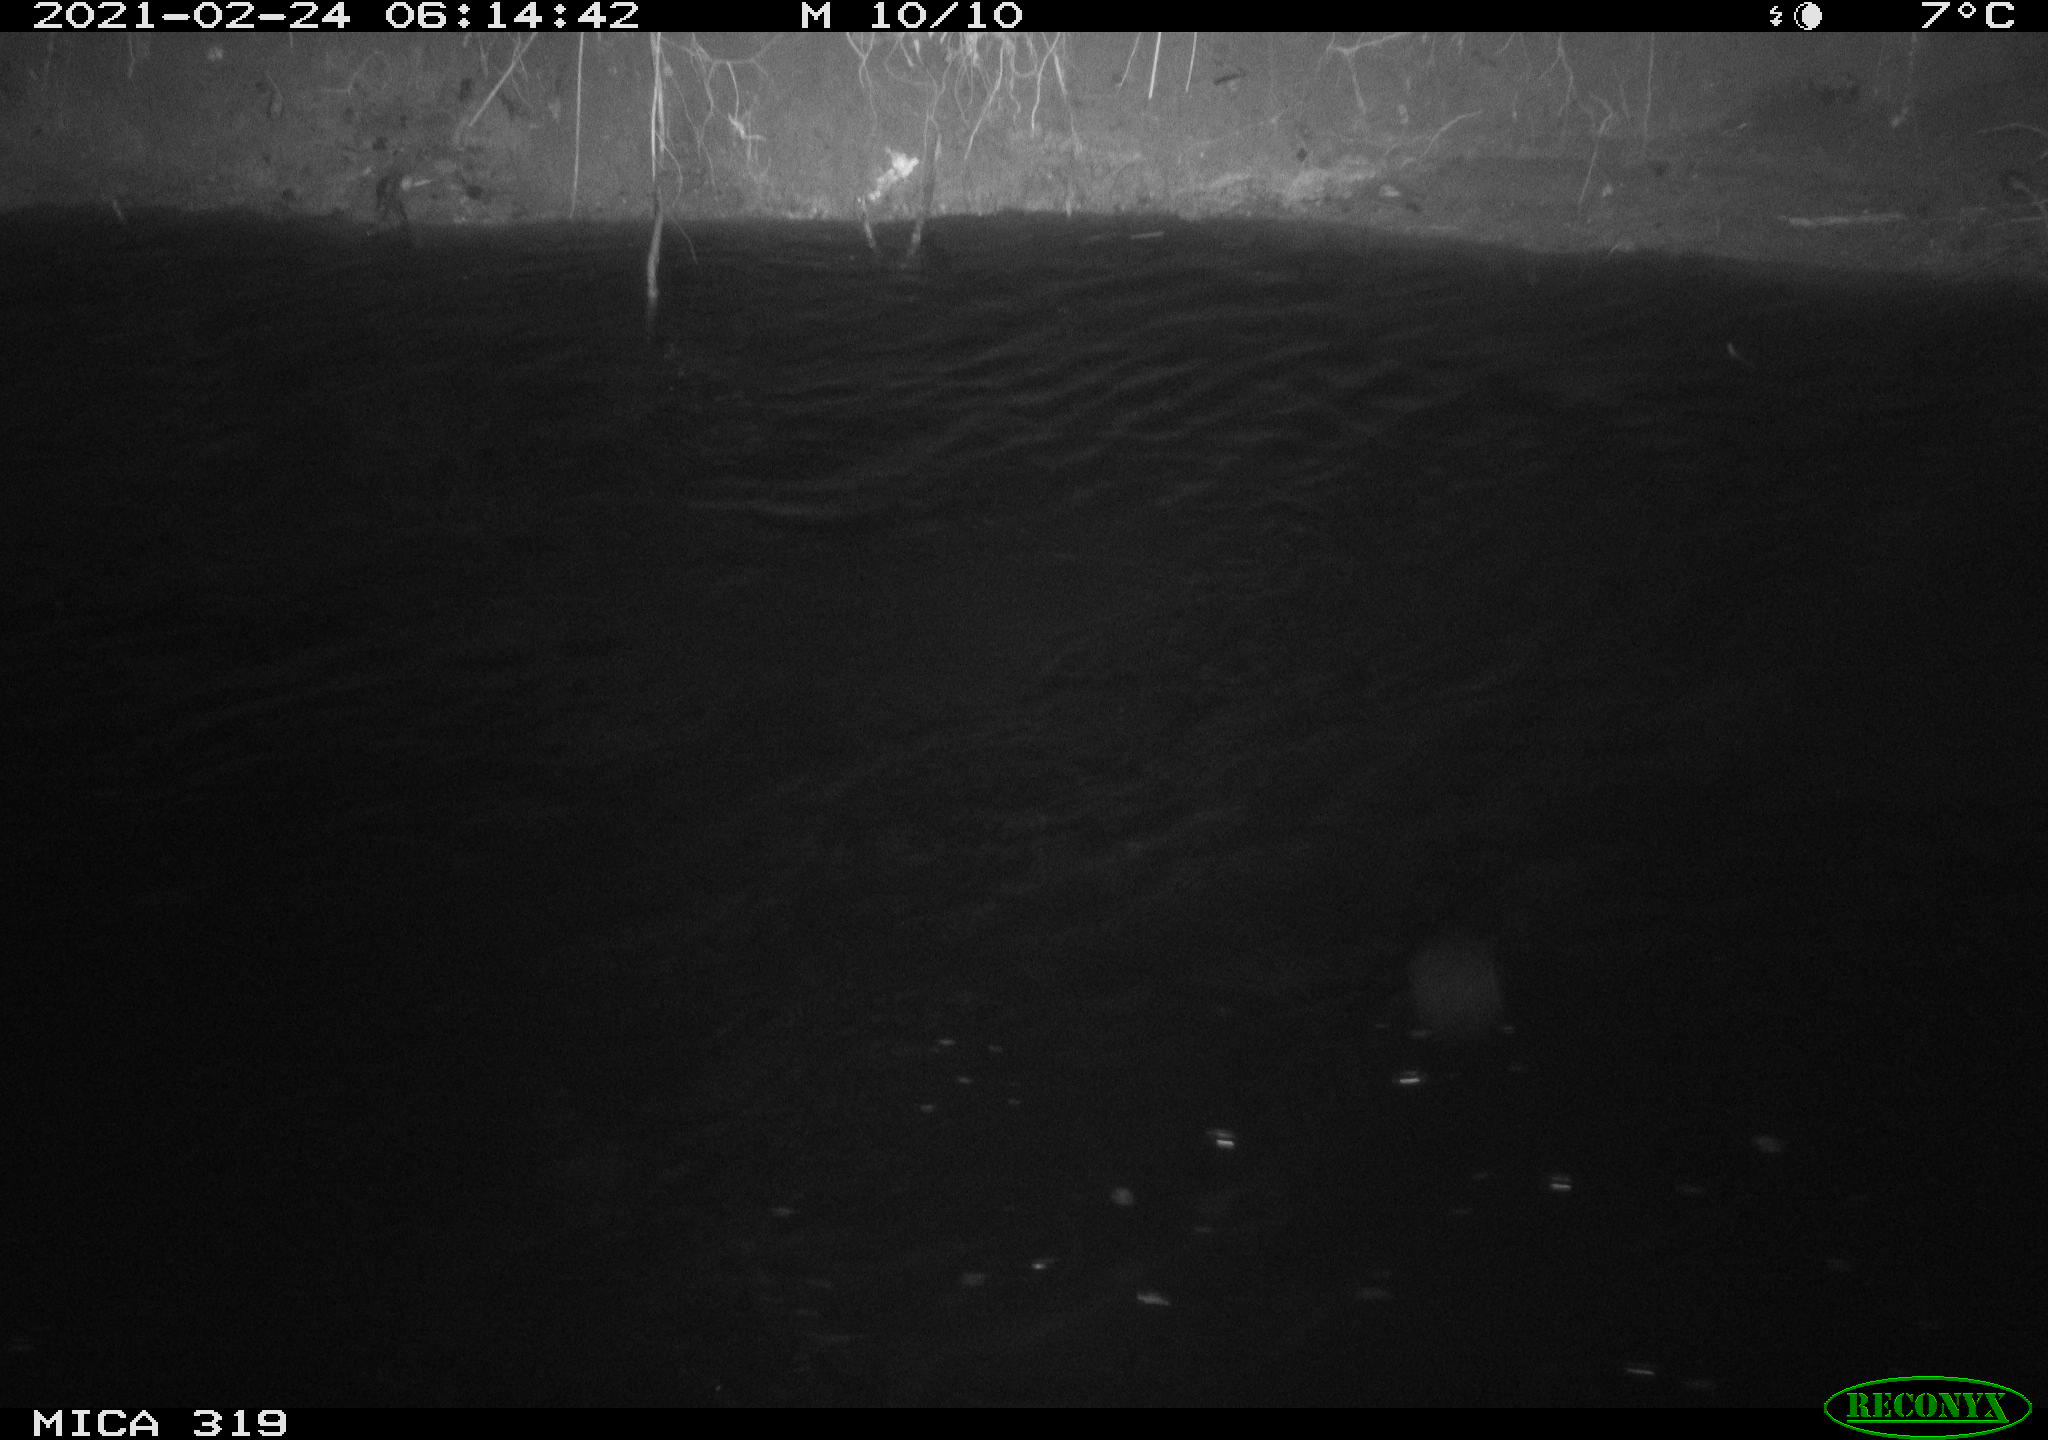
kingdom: Animalia
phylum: Chordata
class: Aves
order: Anseriformes
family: Anatidae
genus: Anas
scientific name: Anas platyrhynchos
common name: Mallard
